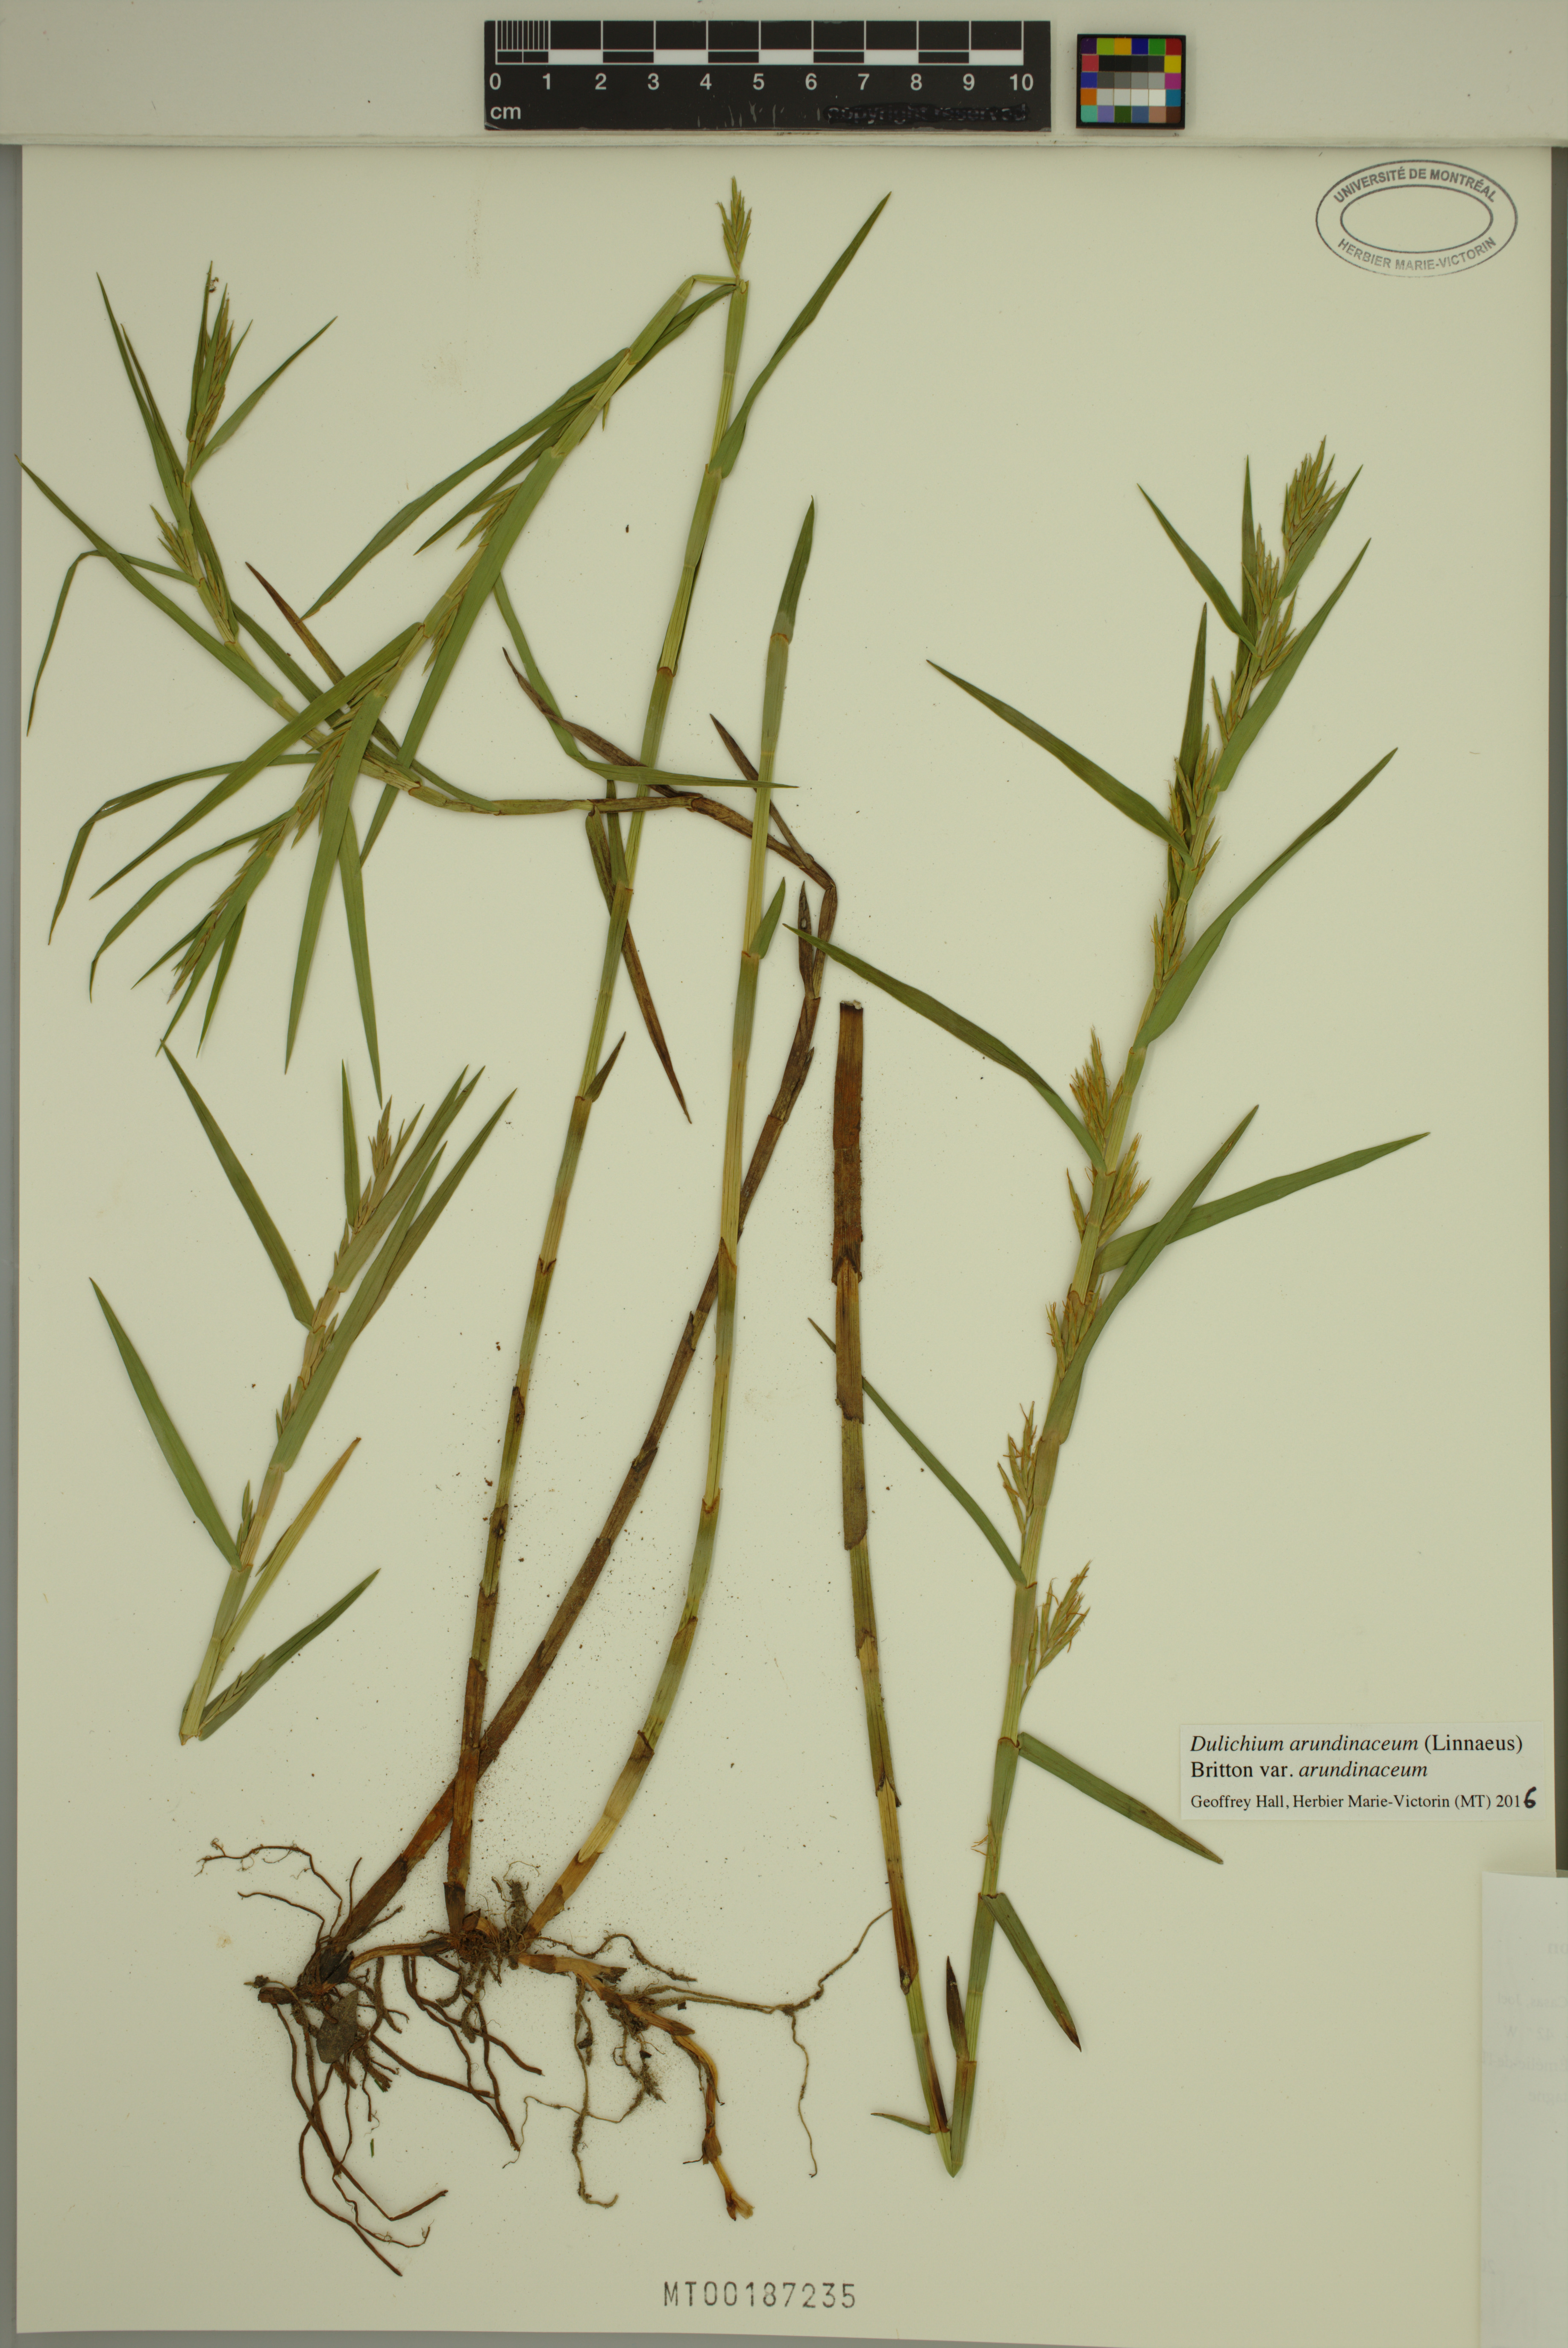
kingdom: Plantae
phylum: Tracheophyta
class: Liliopsida
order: Poales
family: Cyperaceae
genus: Dulichium
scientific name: Dulichium arundinaceum
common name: Three-way sedge
